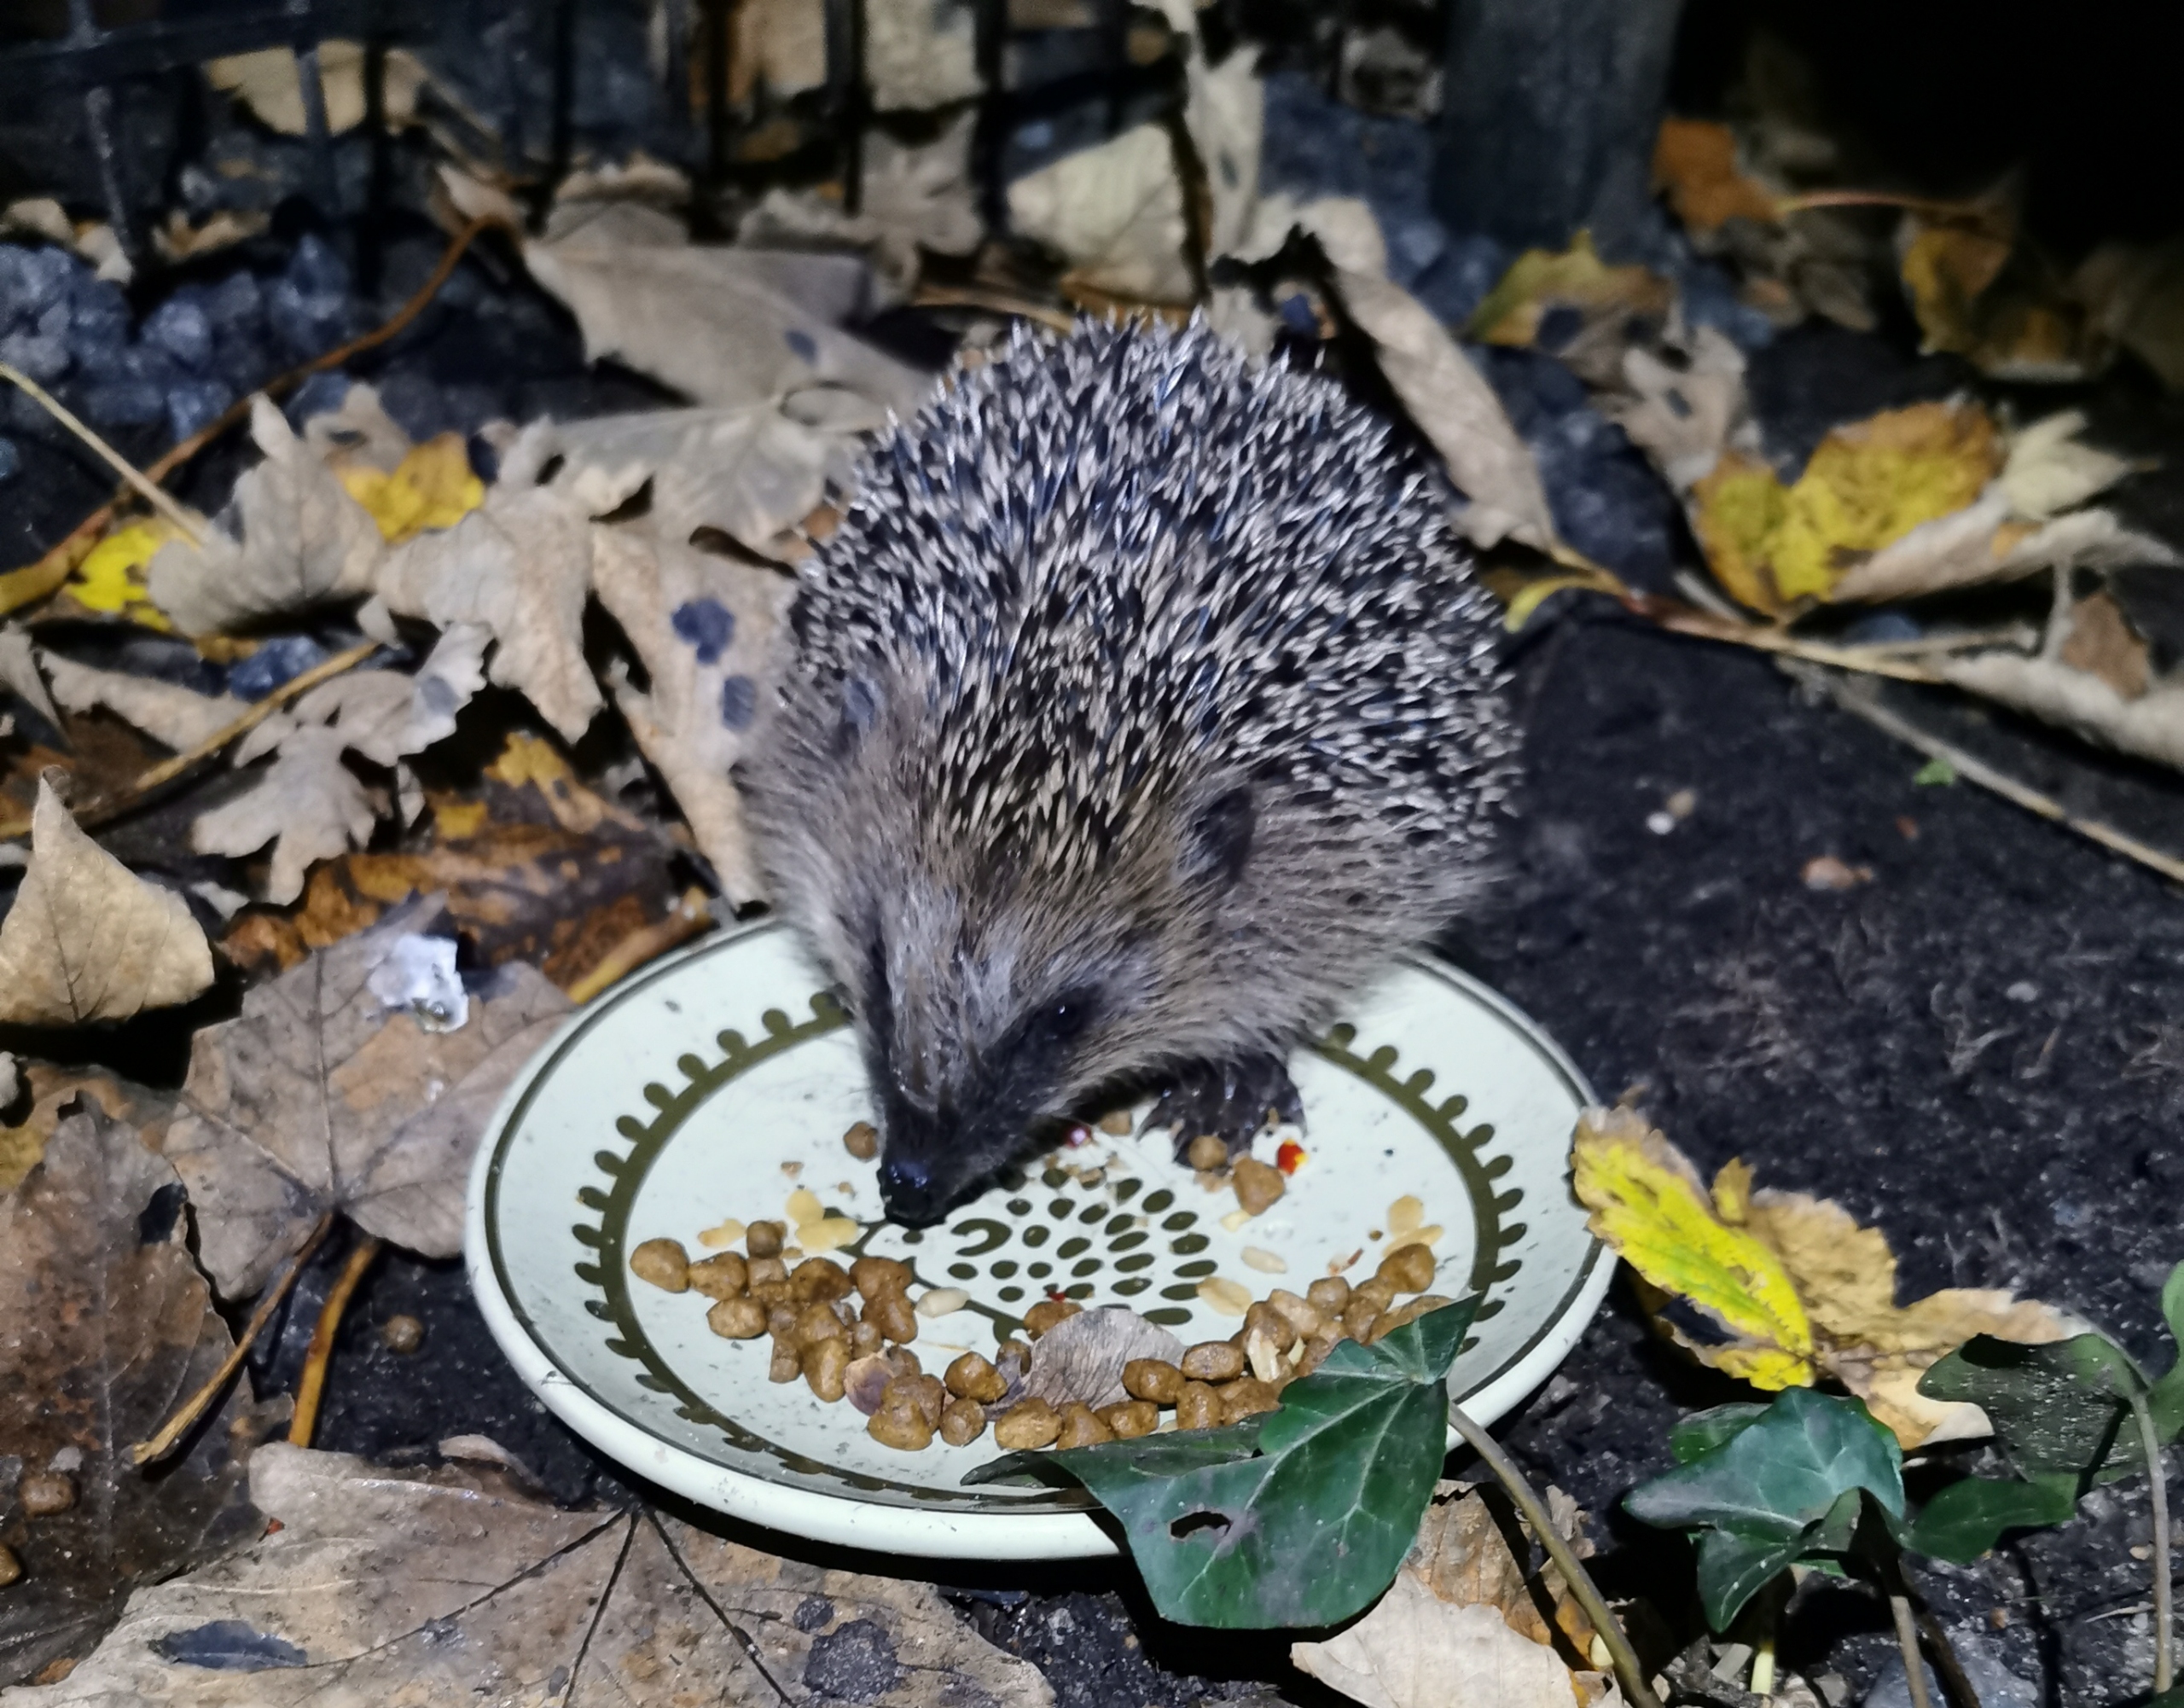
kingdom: Animalia
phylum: Chordata
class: Mammalia
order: Erinaceomorpha
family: Erinaceidae
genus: Erinaceus
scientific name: Erinaceus europaeus
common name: Pindsvin
